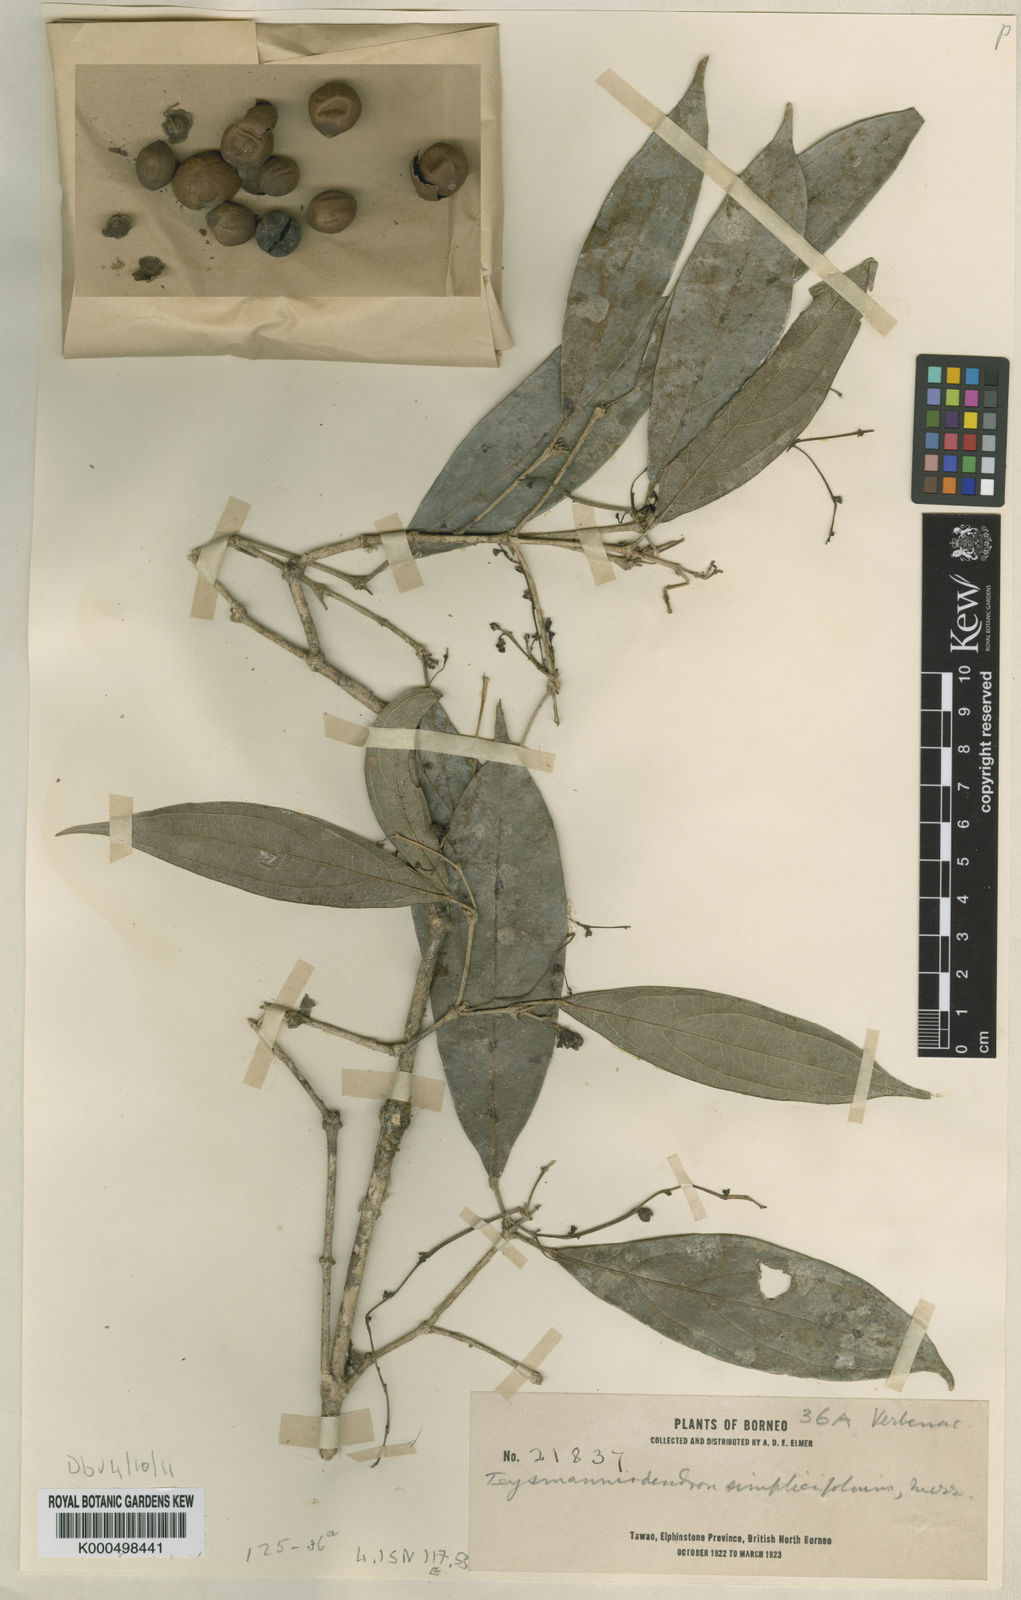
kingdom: Plantae
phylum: Tracheophyta
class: Magnoliopsida
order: Lamiales
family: Lamiaceae
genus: Teijsmanniodendron
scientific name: Teijsmanniodendron simplicifolium
